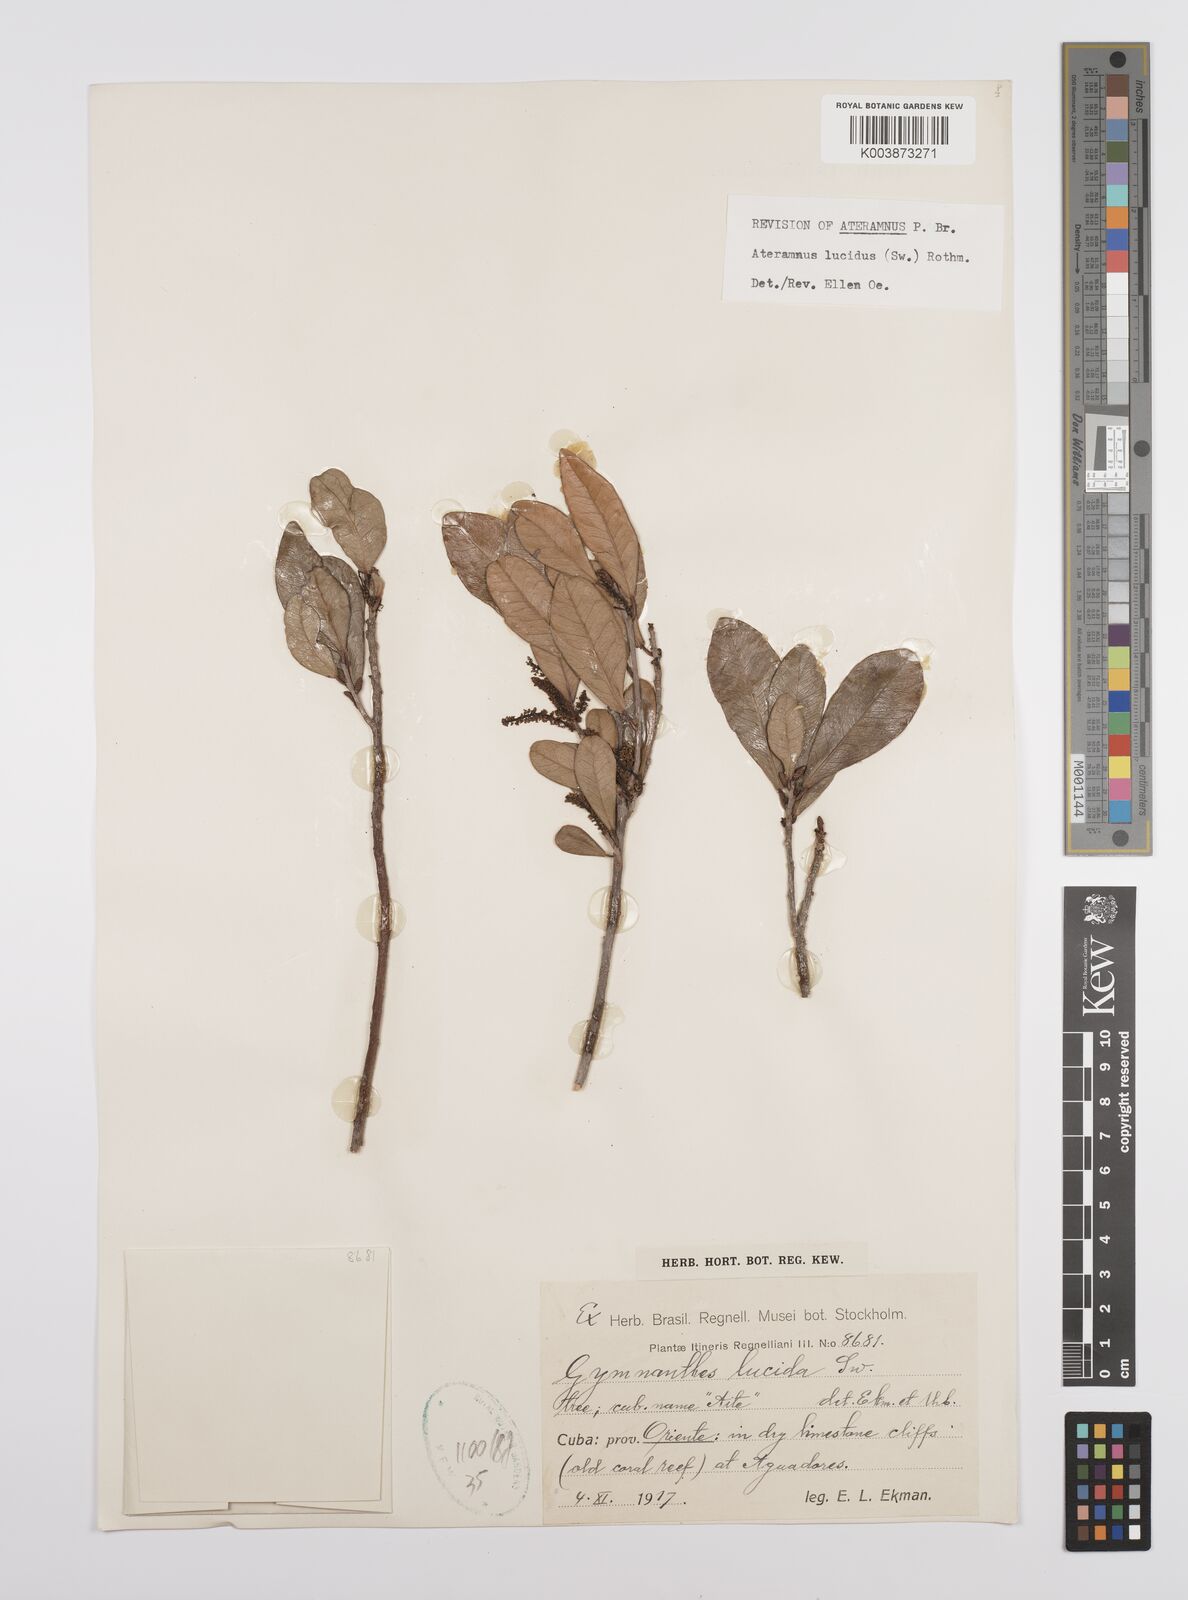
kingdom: Plantae
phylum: Tracheophyta
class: Magnoliopsida
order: Malpighiales
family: Euphorbiaceae
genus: Gymnanthes
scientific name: Gymnanthes lucida
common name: Oysterwood
